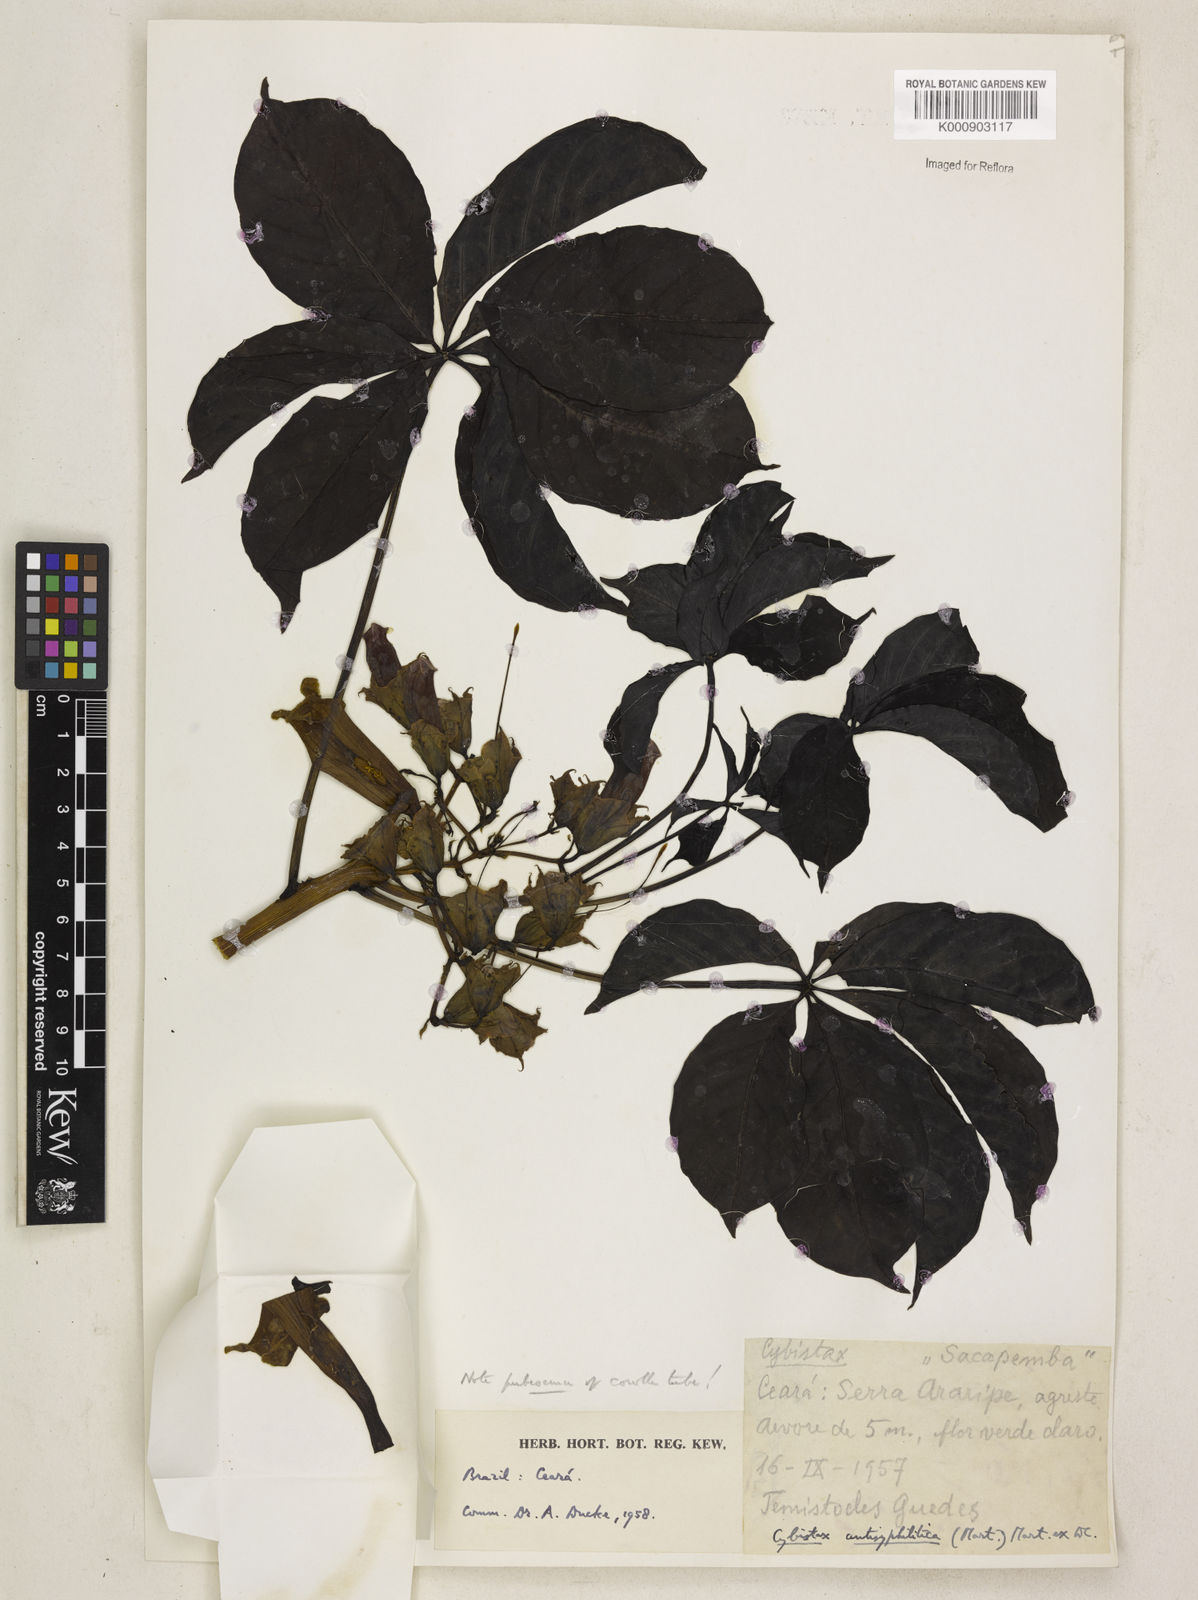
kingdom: Plantae
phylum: Tracheophyta
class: Magnoliopsida
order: Lamiales
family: Bignoniaceae
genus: Cybistax
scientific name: Cybistax antisyphilitica
